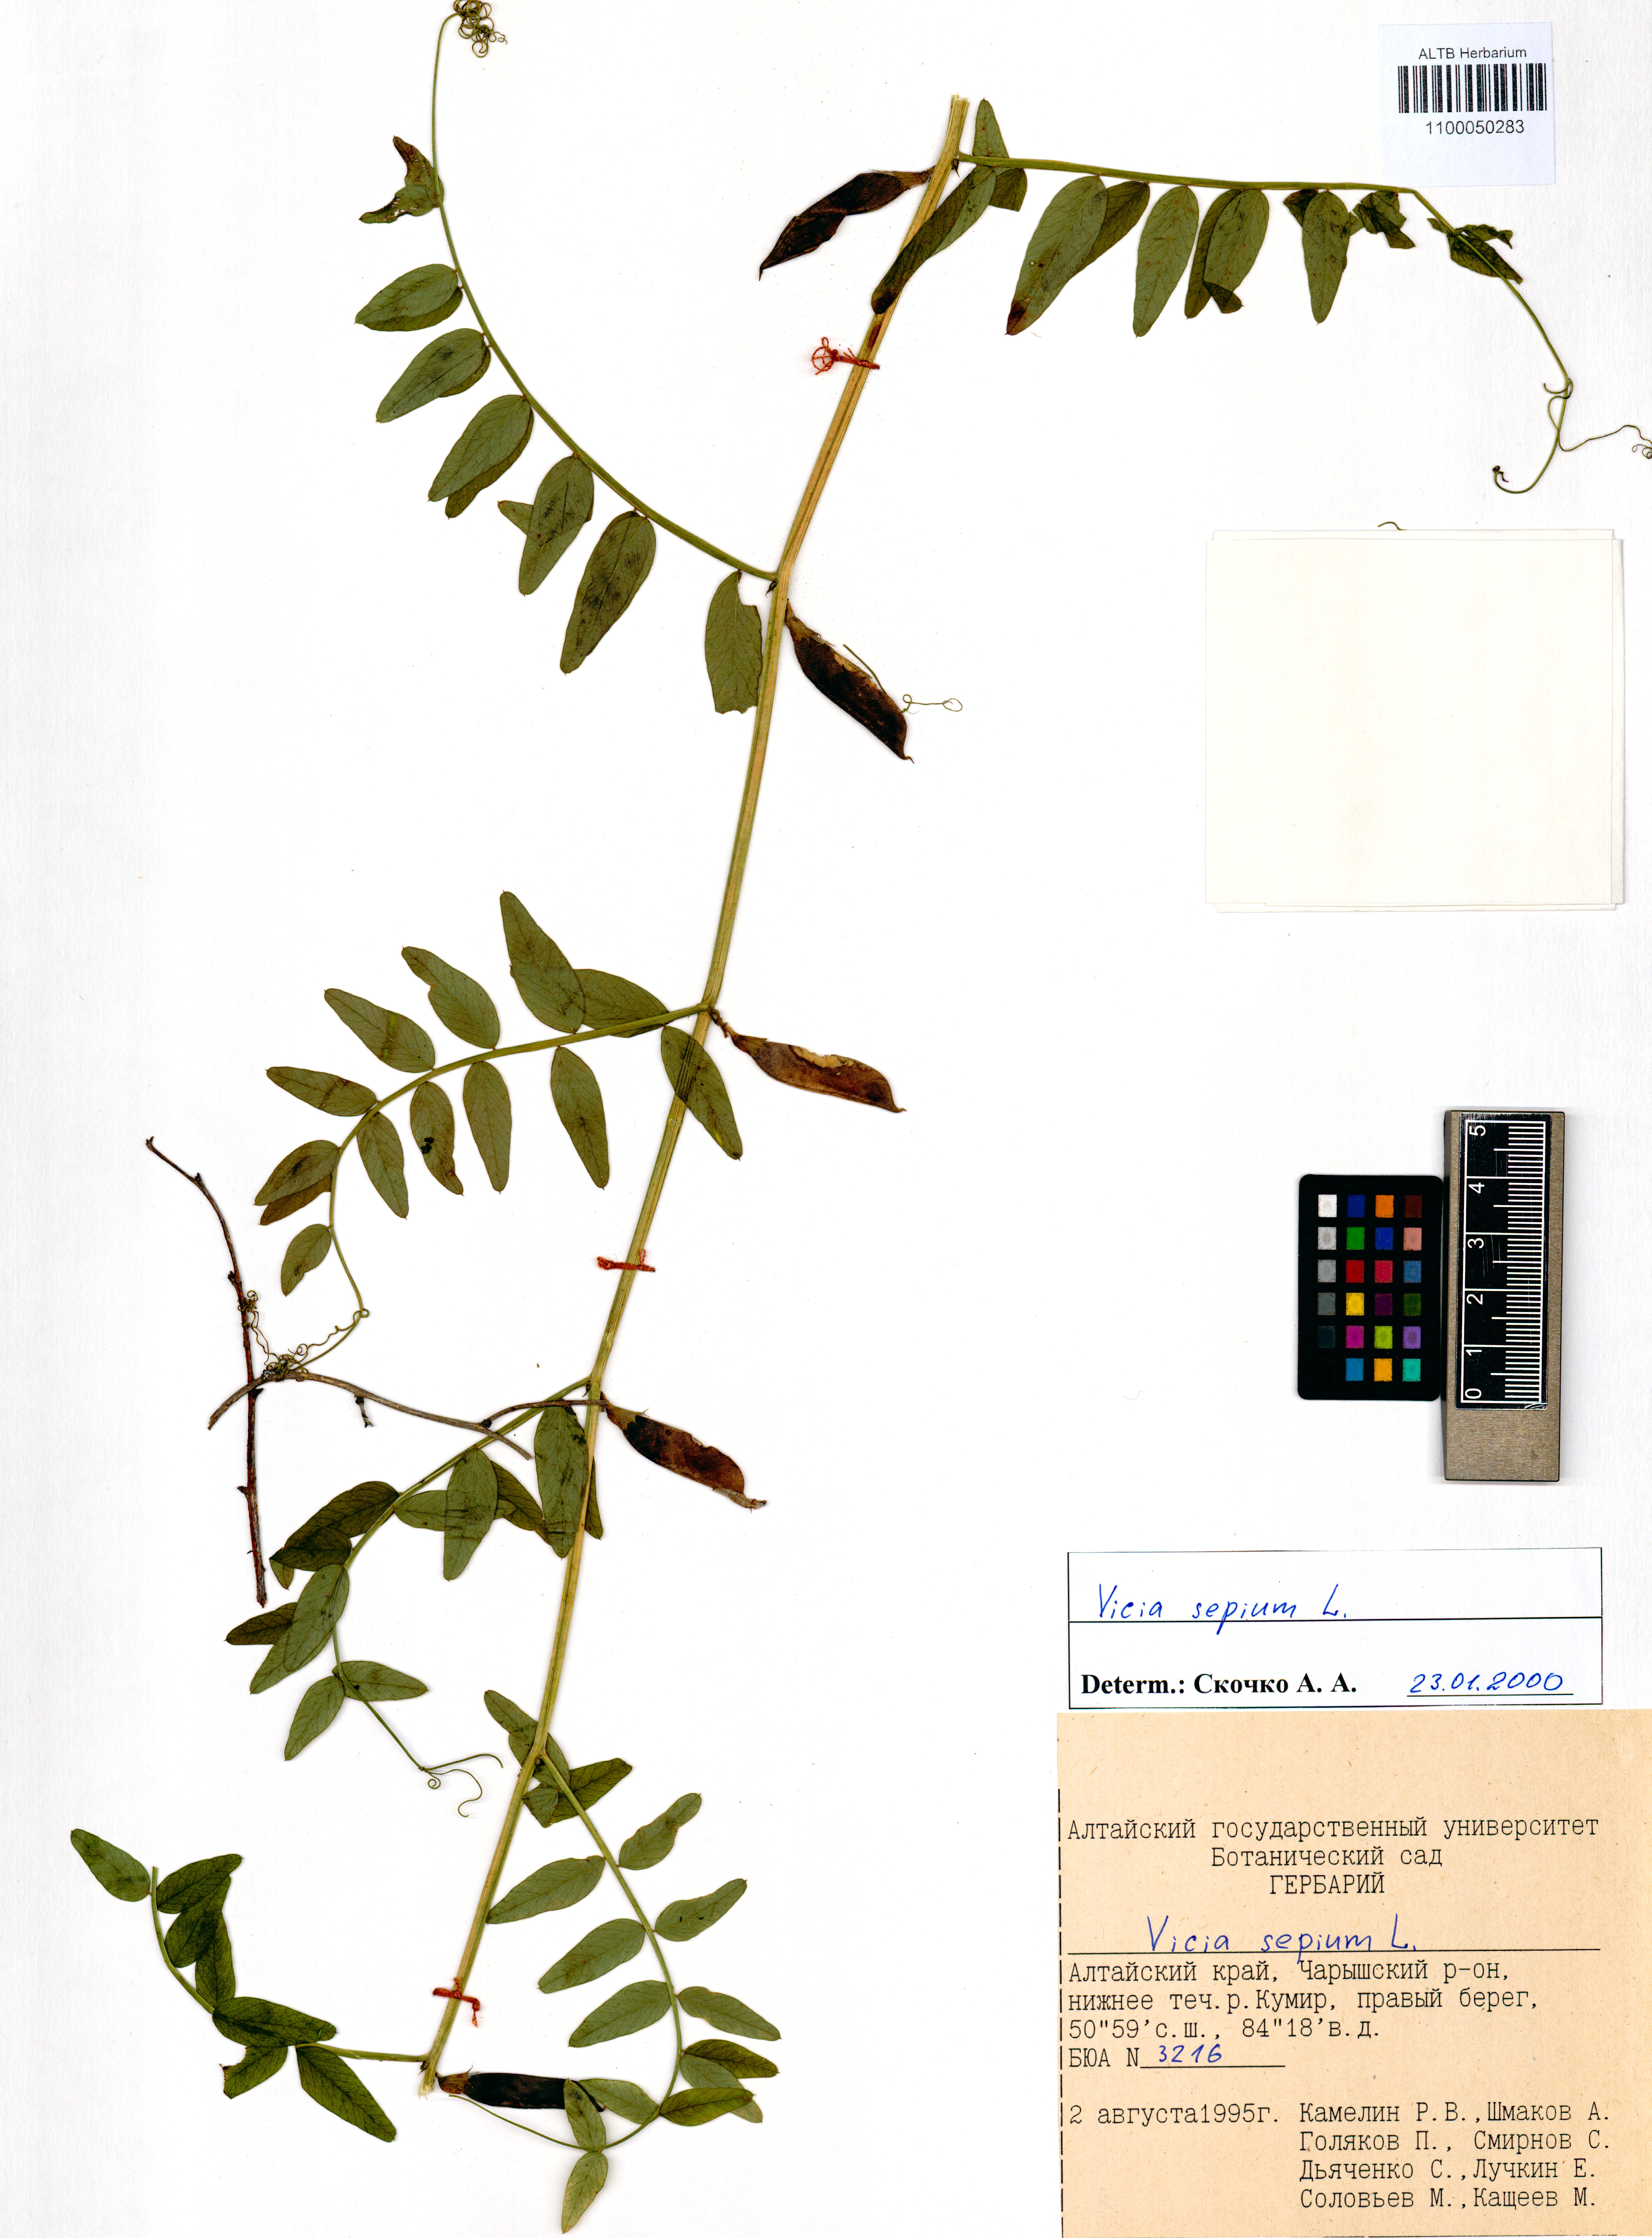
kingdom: Plantae
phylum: Tracheophyta
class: Magnoliopsida
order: Fabales
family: Fabaceae
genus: Vicia
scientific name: Vicia sepium
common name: Bush vetch
